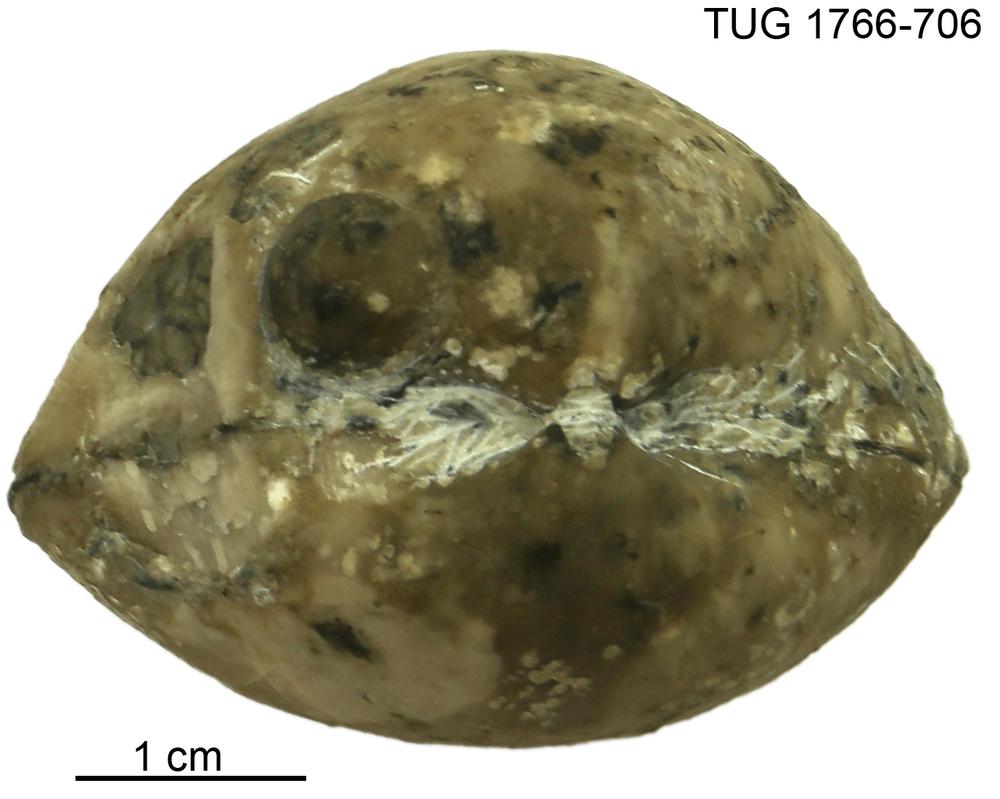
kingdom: Animalia
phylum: Brachiopoda
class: Rhynchonellata
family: Porambonitidae
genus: Porambonites
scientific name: Porambonites
